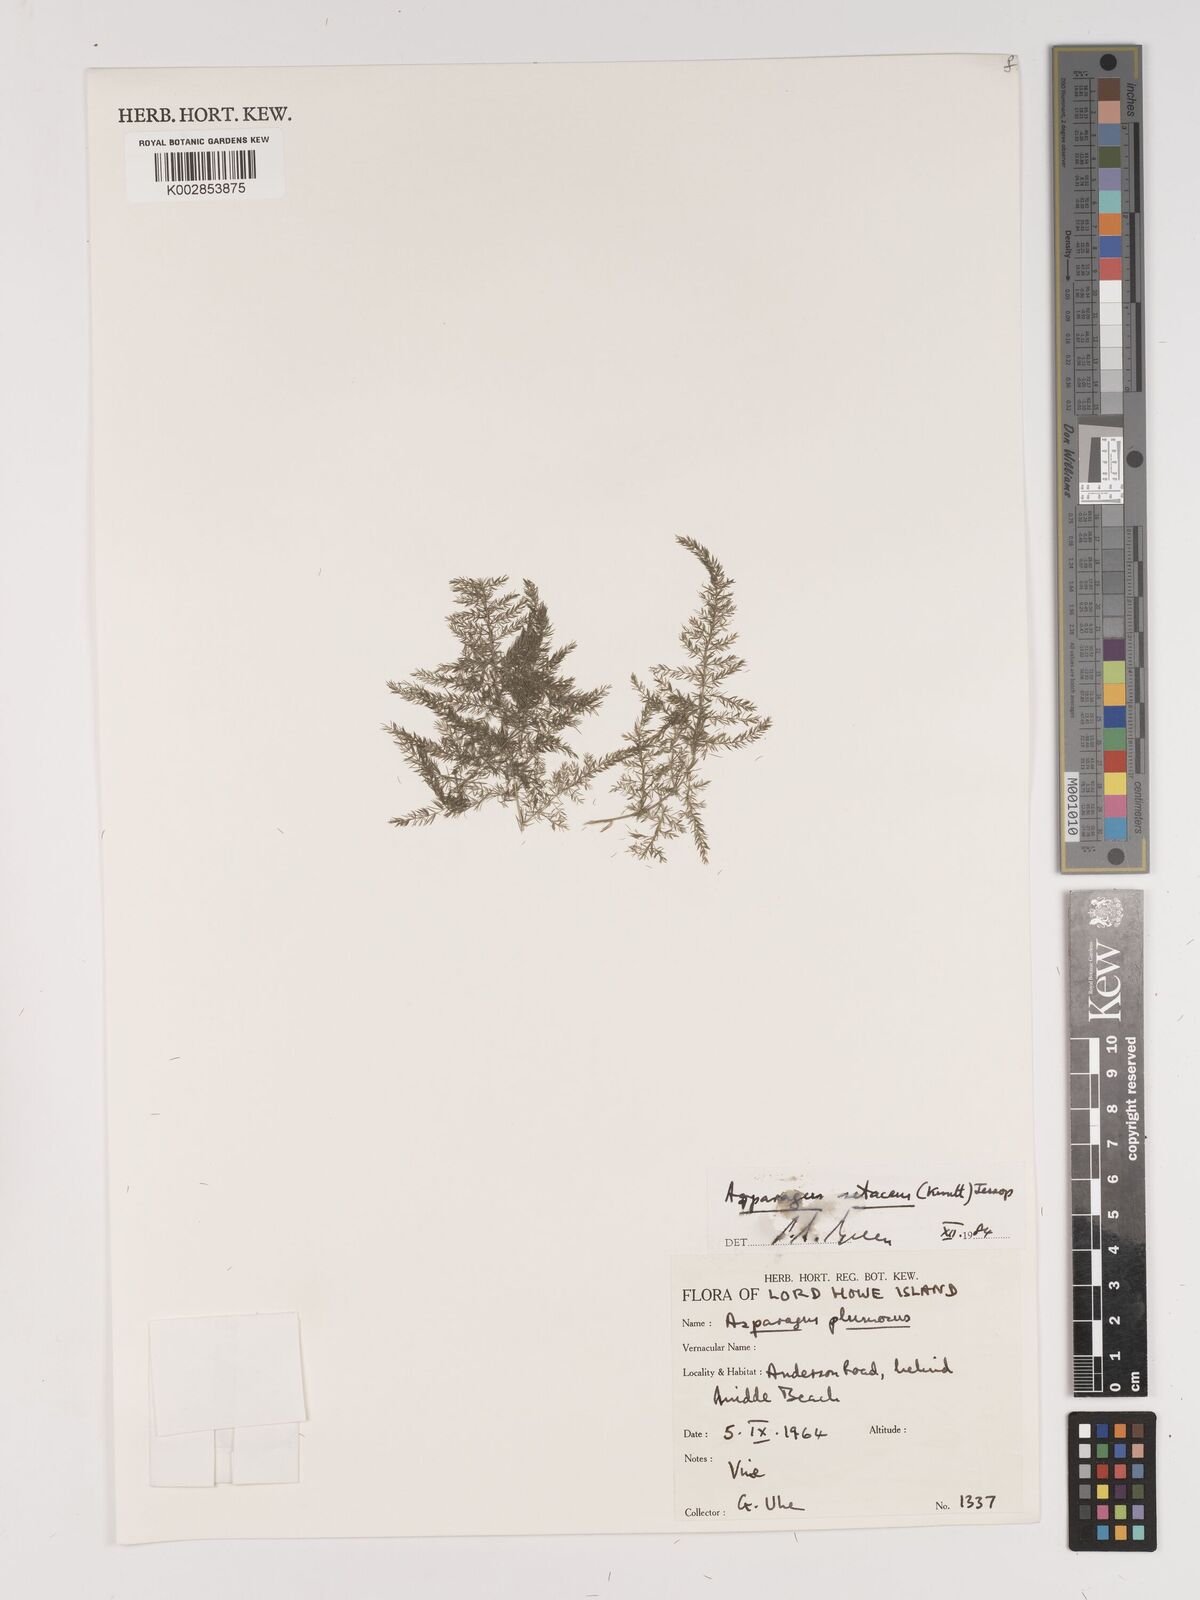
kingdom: Plantae
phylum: Tracheophyta
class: Liliopsida
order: Asparagales
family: Asparagaceae
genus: Asparagus
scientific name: Asparagus setaceus
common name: Common asparagus fern
